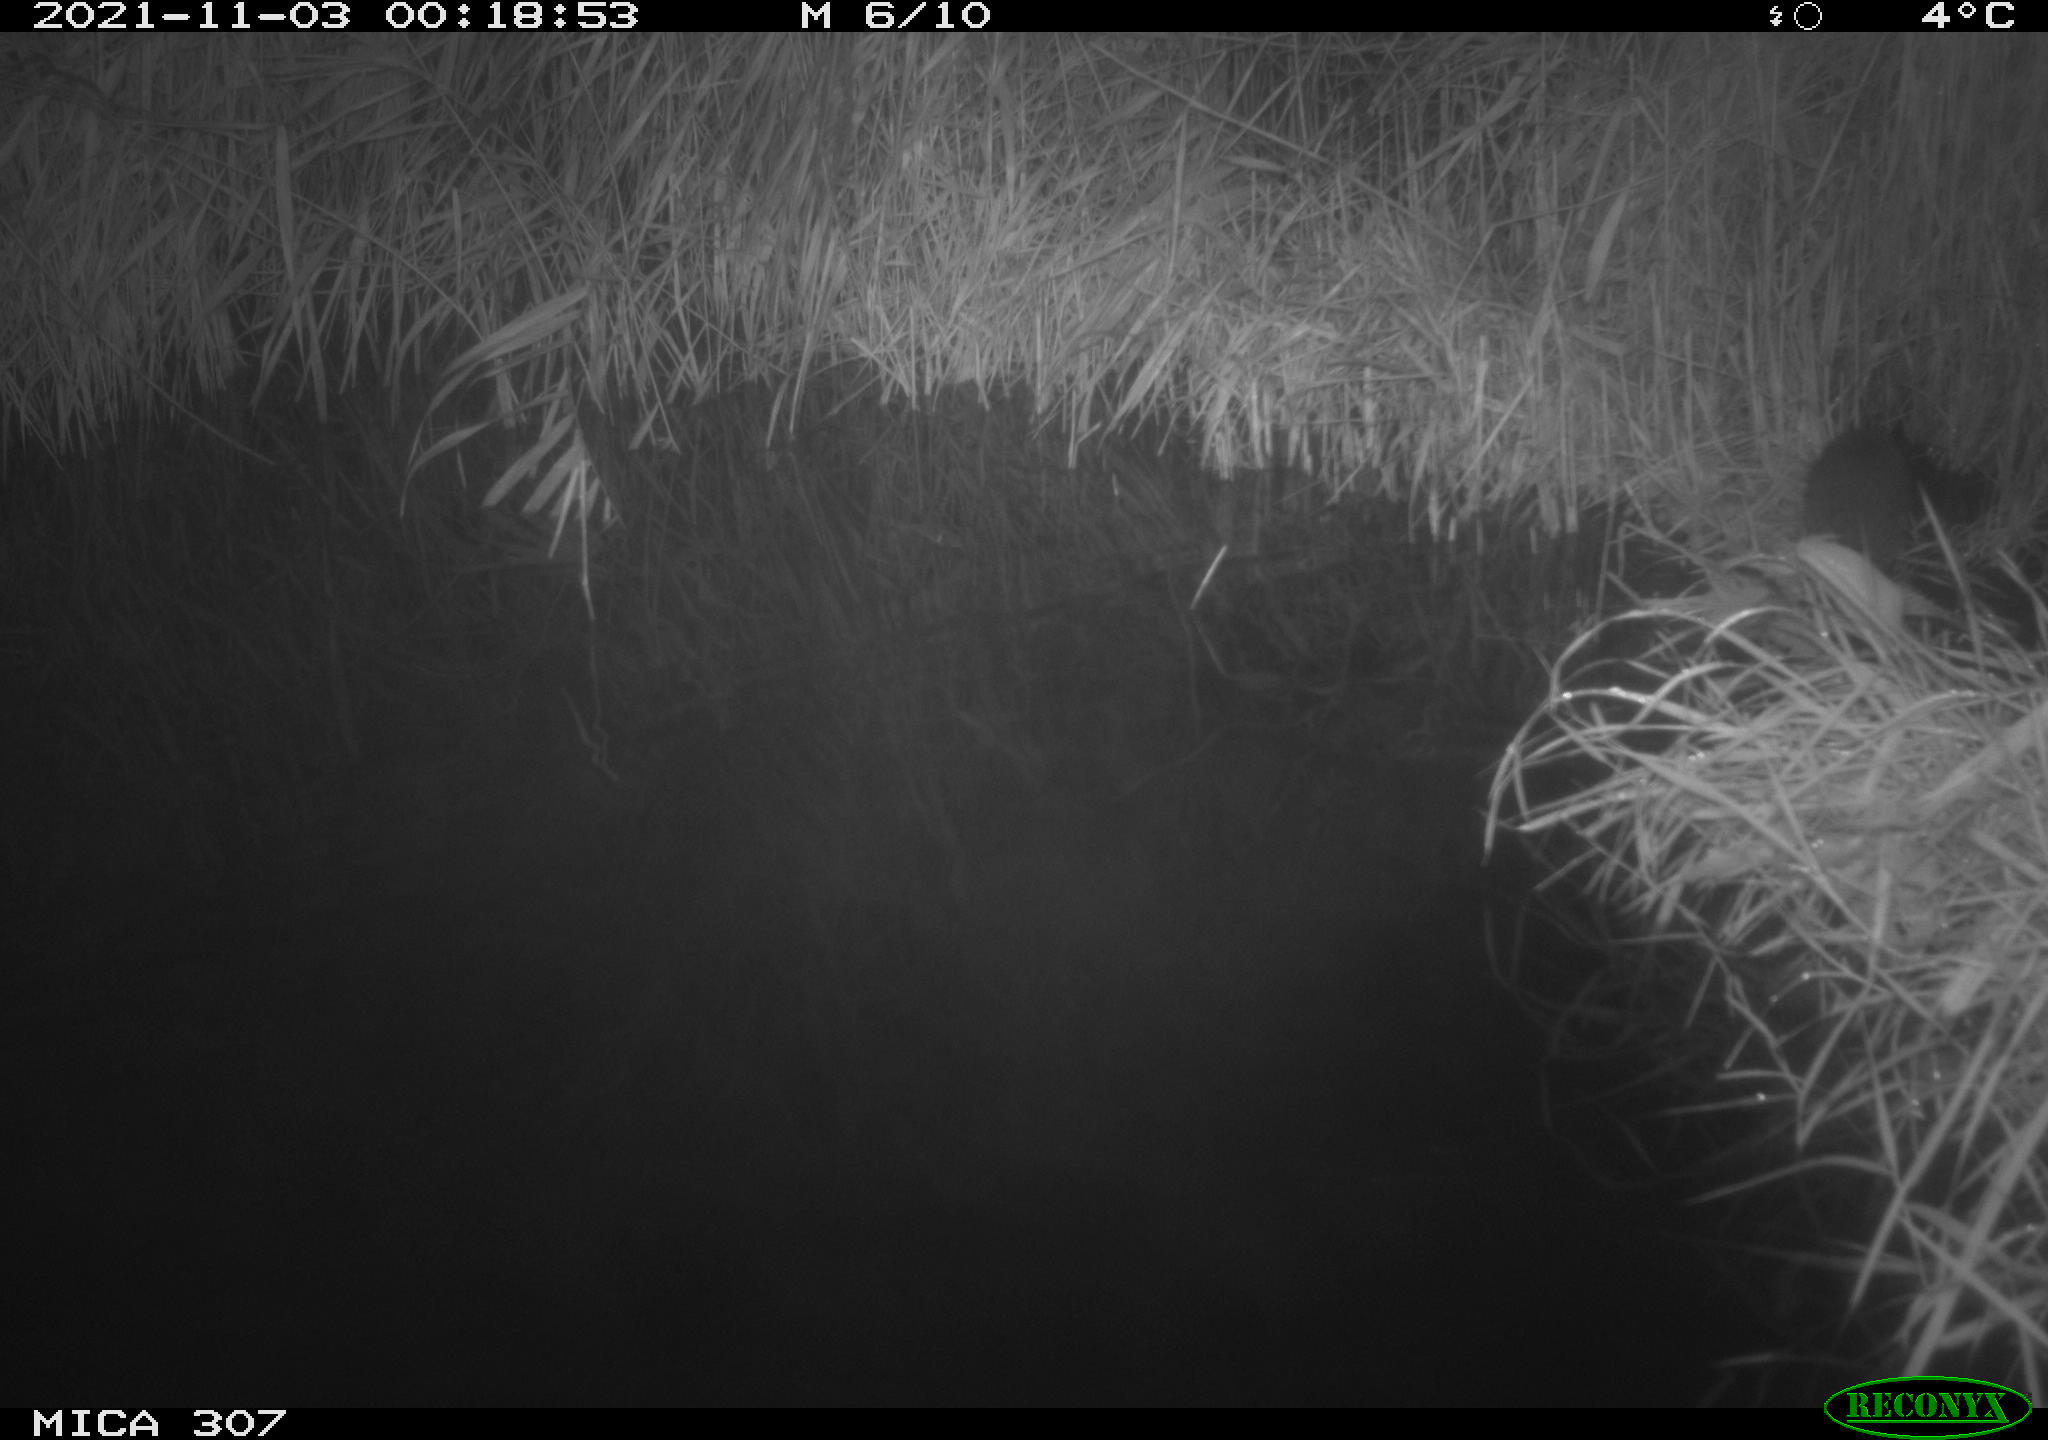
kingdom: Animalia
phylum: Chordata
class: Mammalia
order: Rodentia
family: Muridae
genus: Rattus
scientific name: Rattus norvegicus
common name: Brown rat
